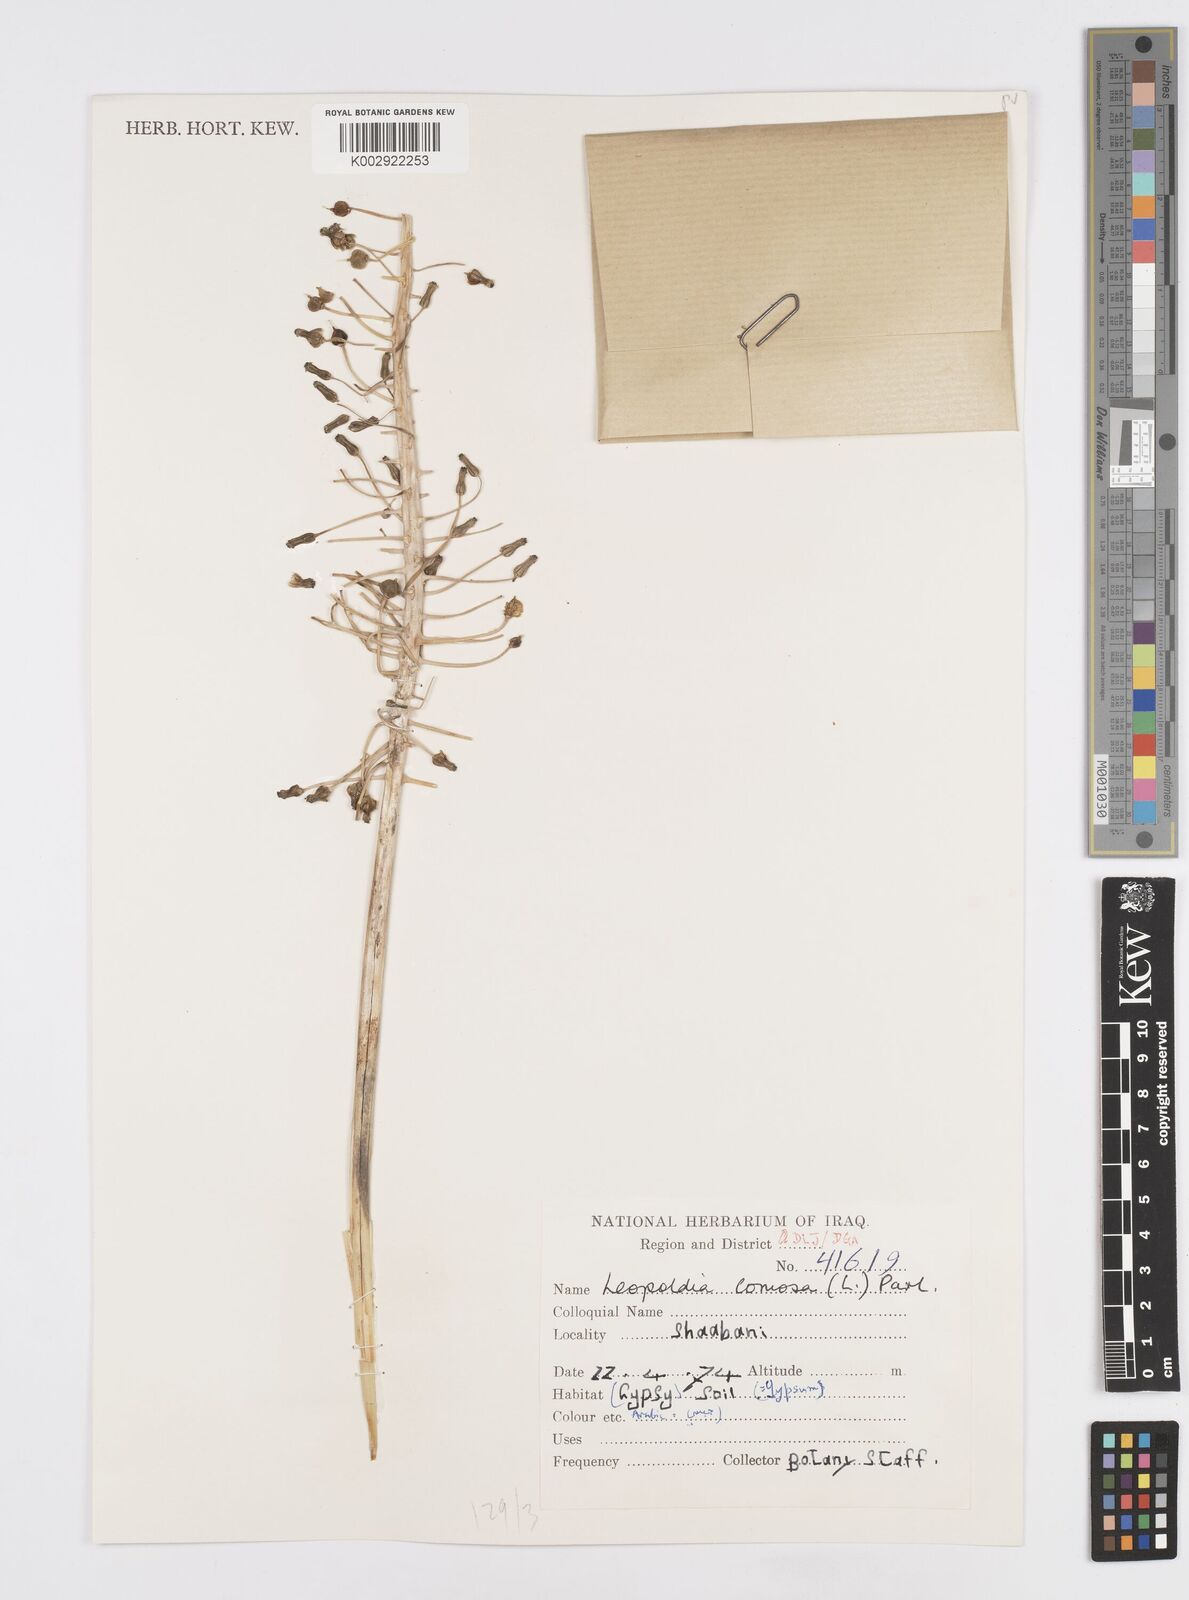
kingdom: Plantae
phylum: Tracheophyta
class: Liliopsida
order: Asparagales
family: Asparagaceae
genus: Muscari
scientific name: Muscari comosum
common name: Tassel hyacinth
